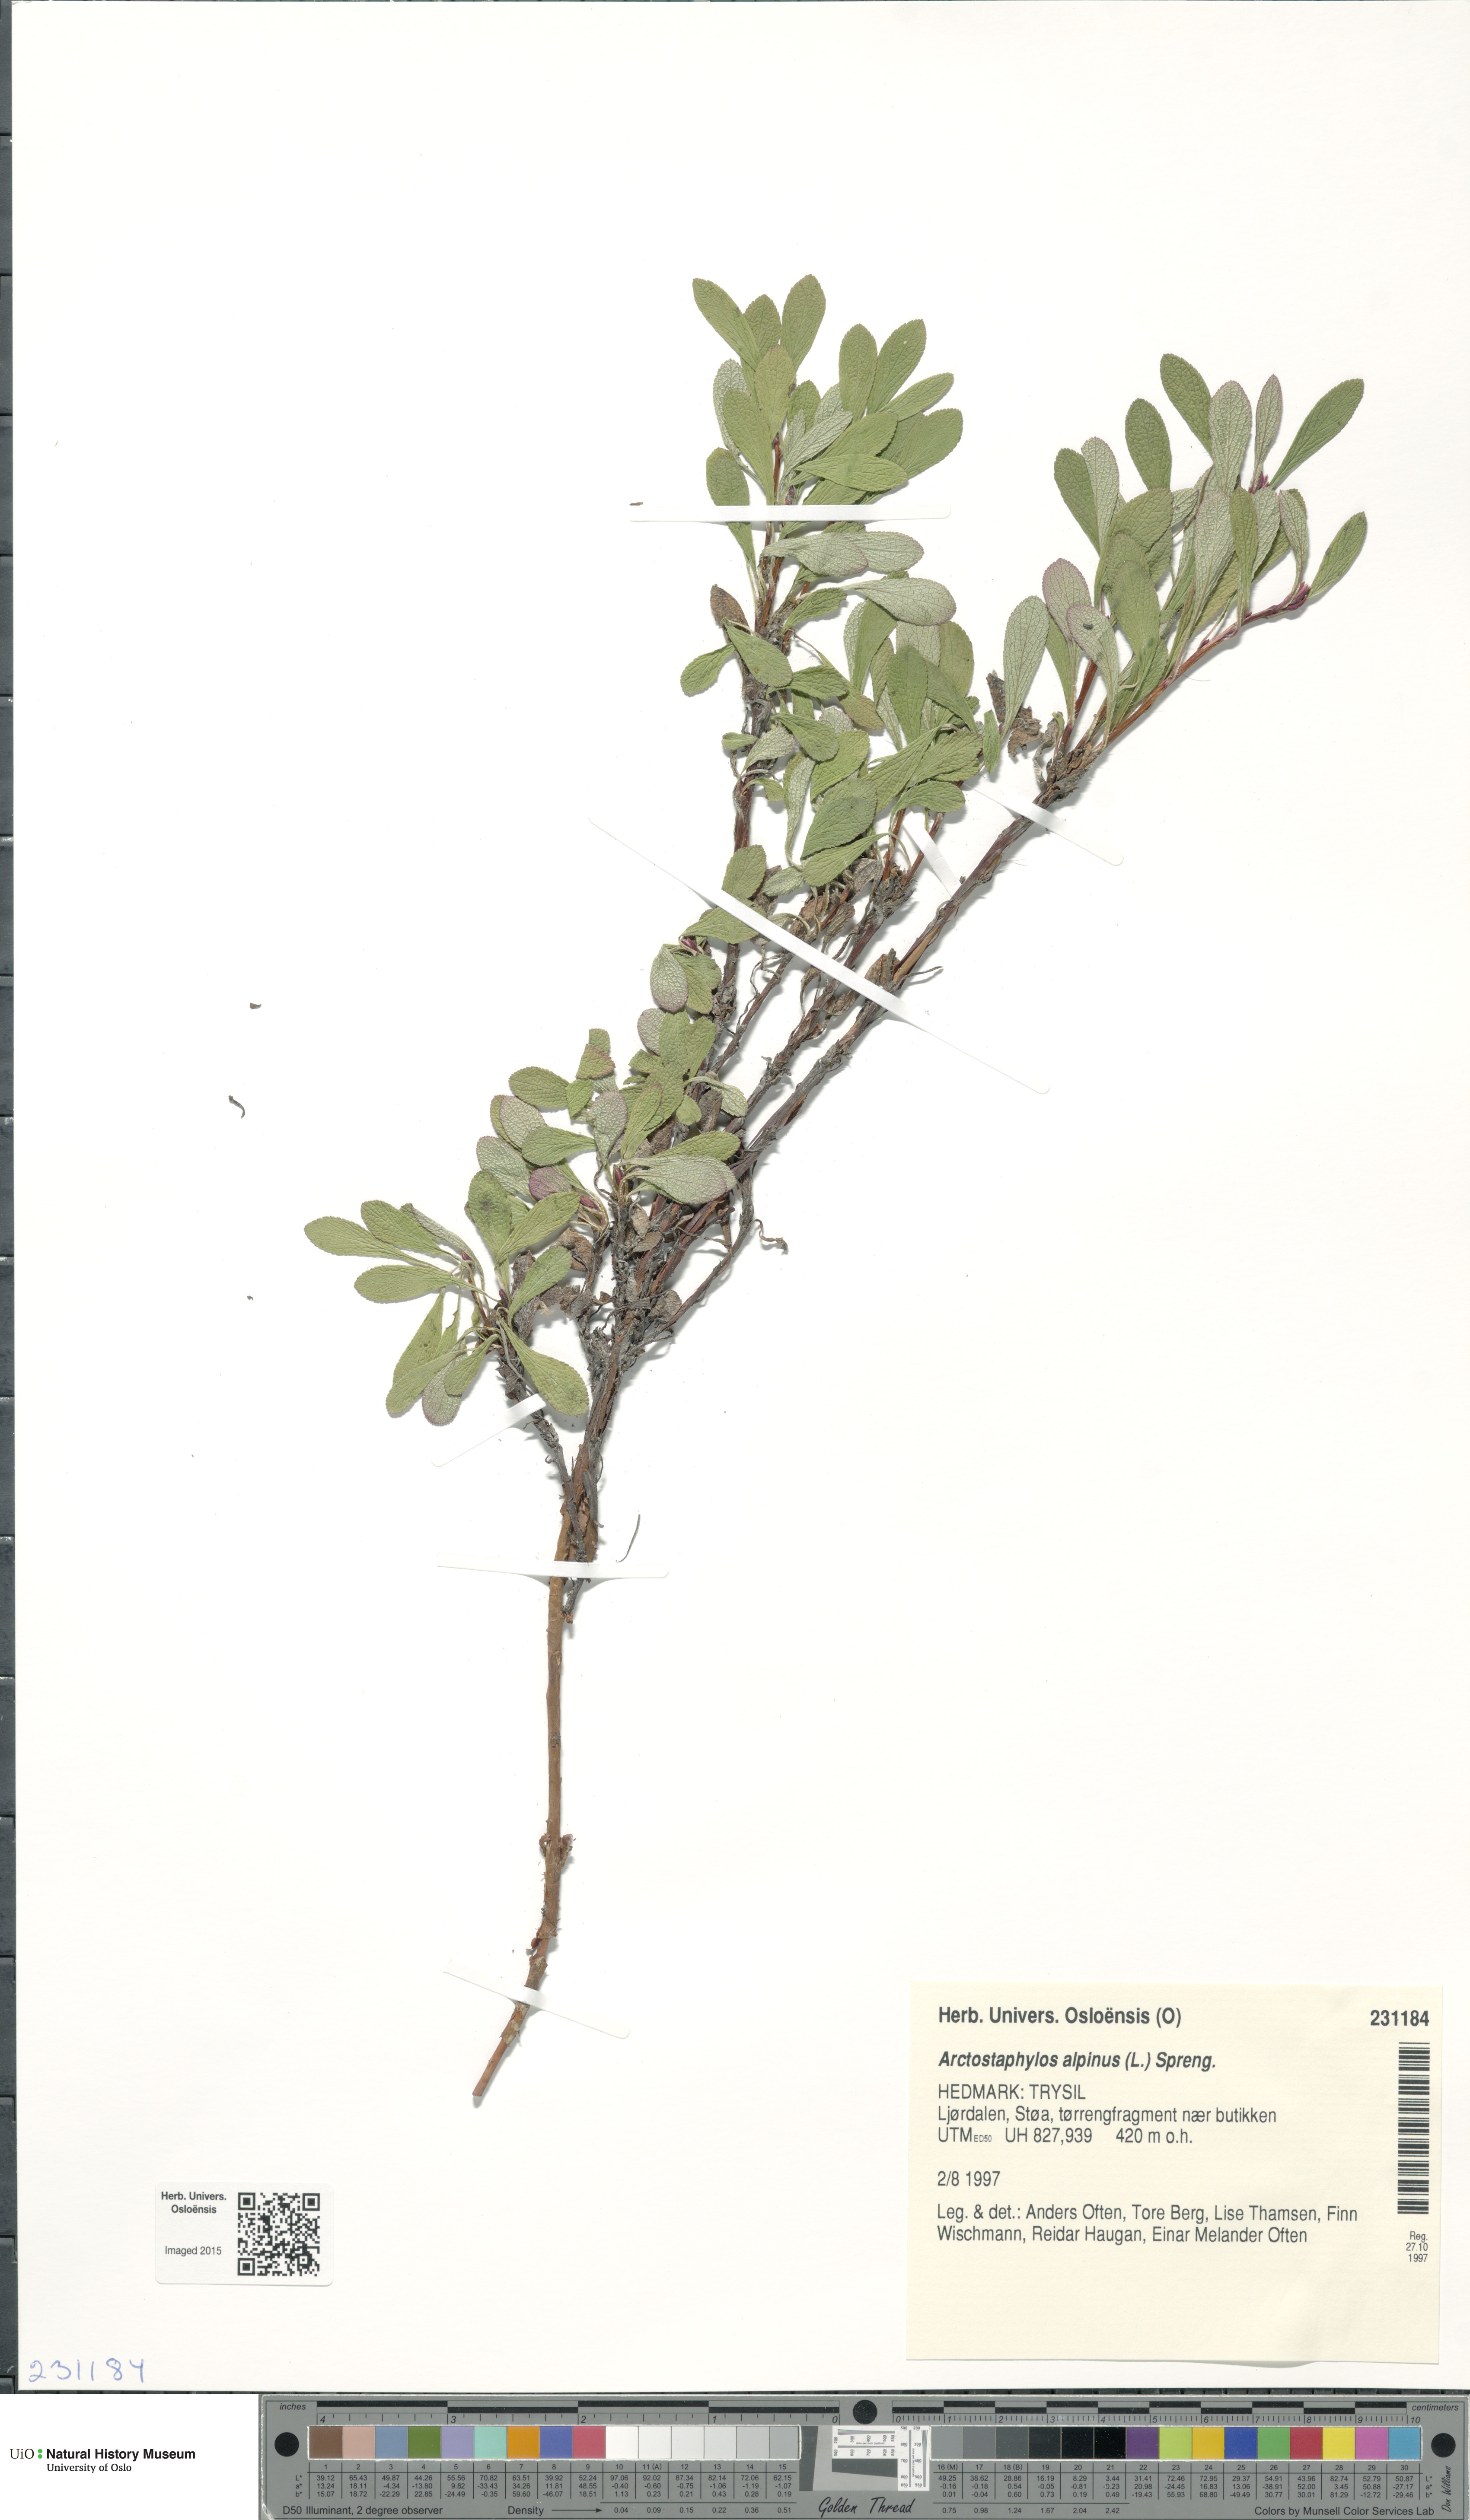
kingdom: Plantae
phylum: Tracheophyta
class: Magnoliopsida
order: Ericales
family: Ericaceae
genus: Arctostaphylos
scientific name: Arctostaphylos alpinus
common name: Alpine bearberry
